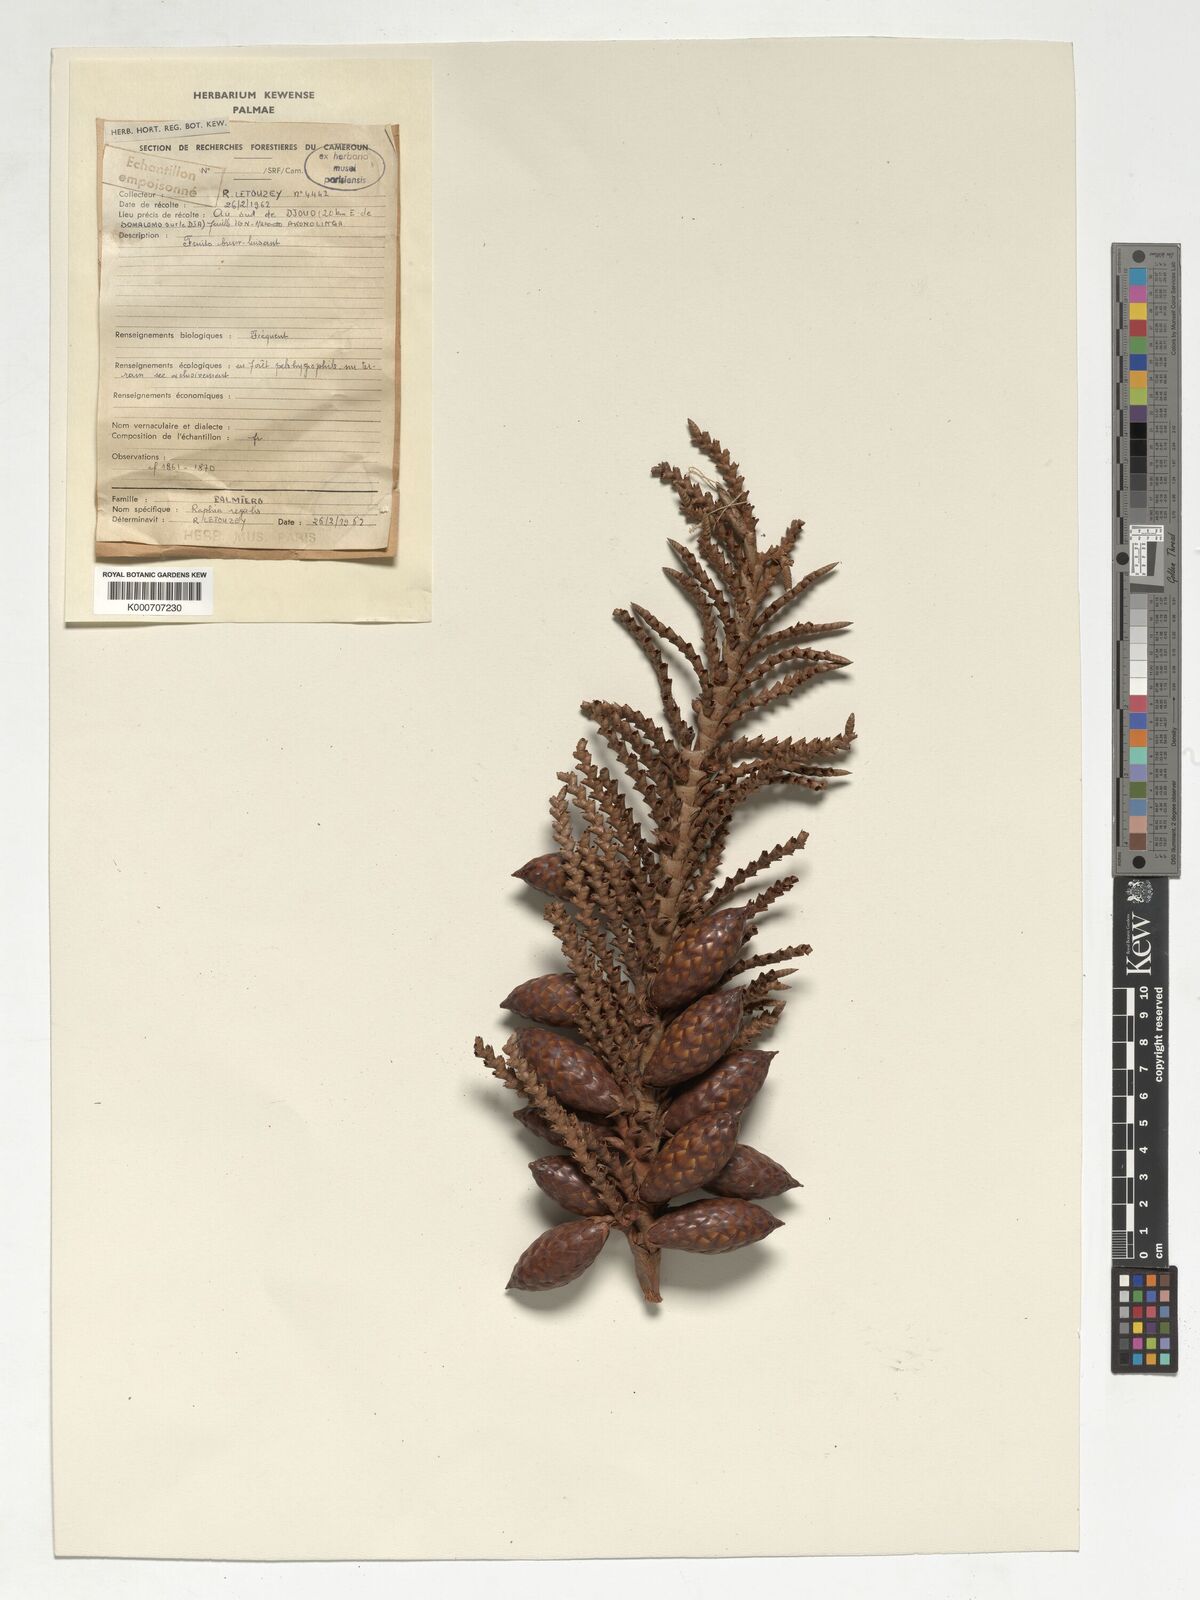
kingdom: Plantae
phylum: Tracheophyta
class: Liliopsida
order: Arecales
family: Arecaceae
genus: Raphia
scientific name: Raphia regalis
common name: Raphia palm
